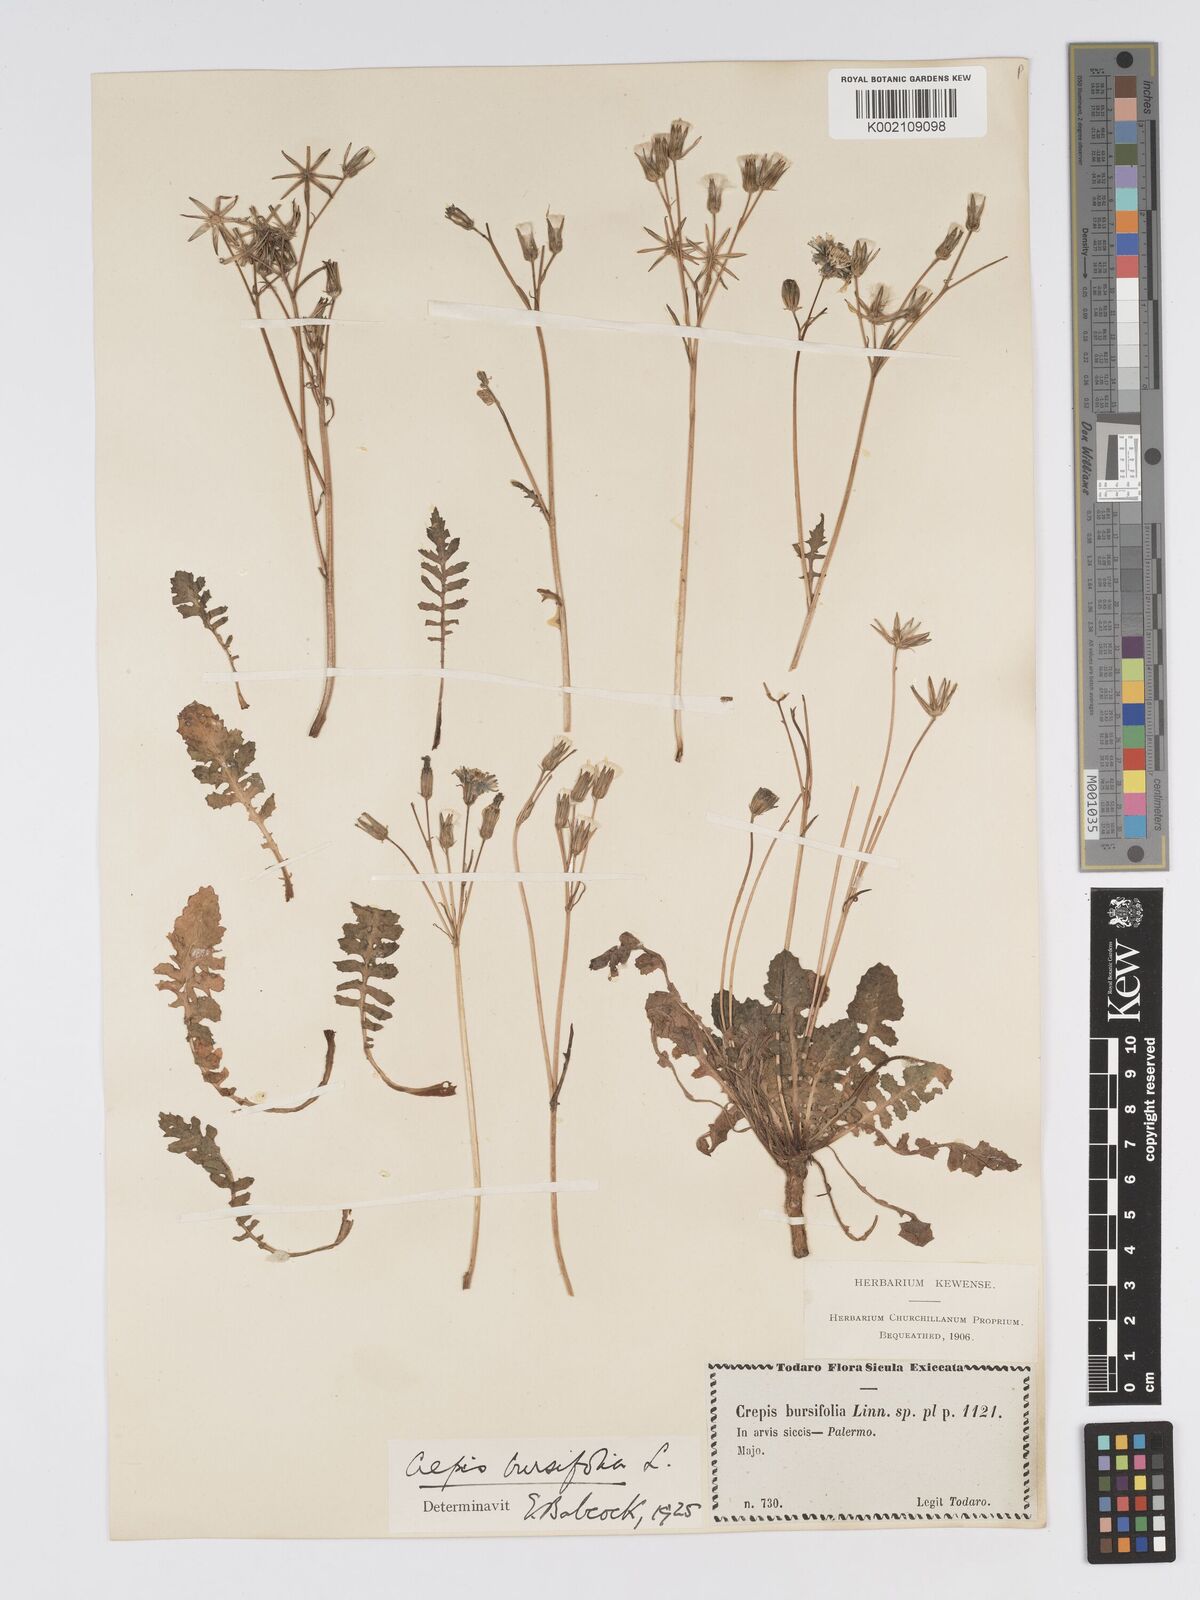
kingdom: Plantae
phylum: Tracheophyta
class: Magnoliopsida
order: Asterales
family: Asteraceae
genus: Crepis
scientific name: Crepis bursifolia
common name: Italian hawksbeard
